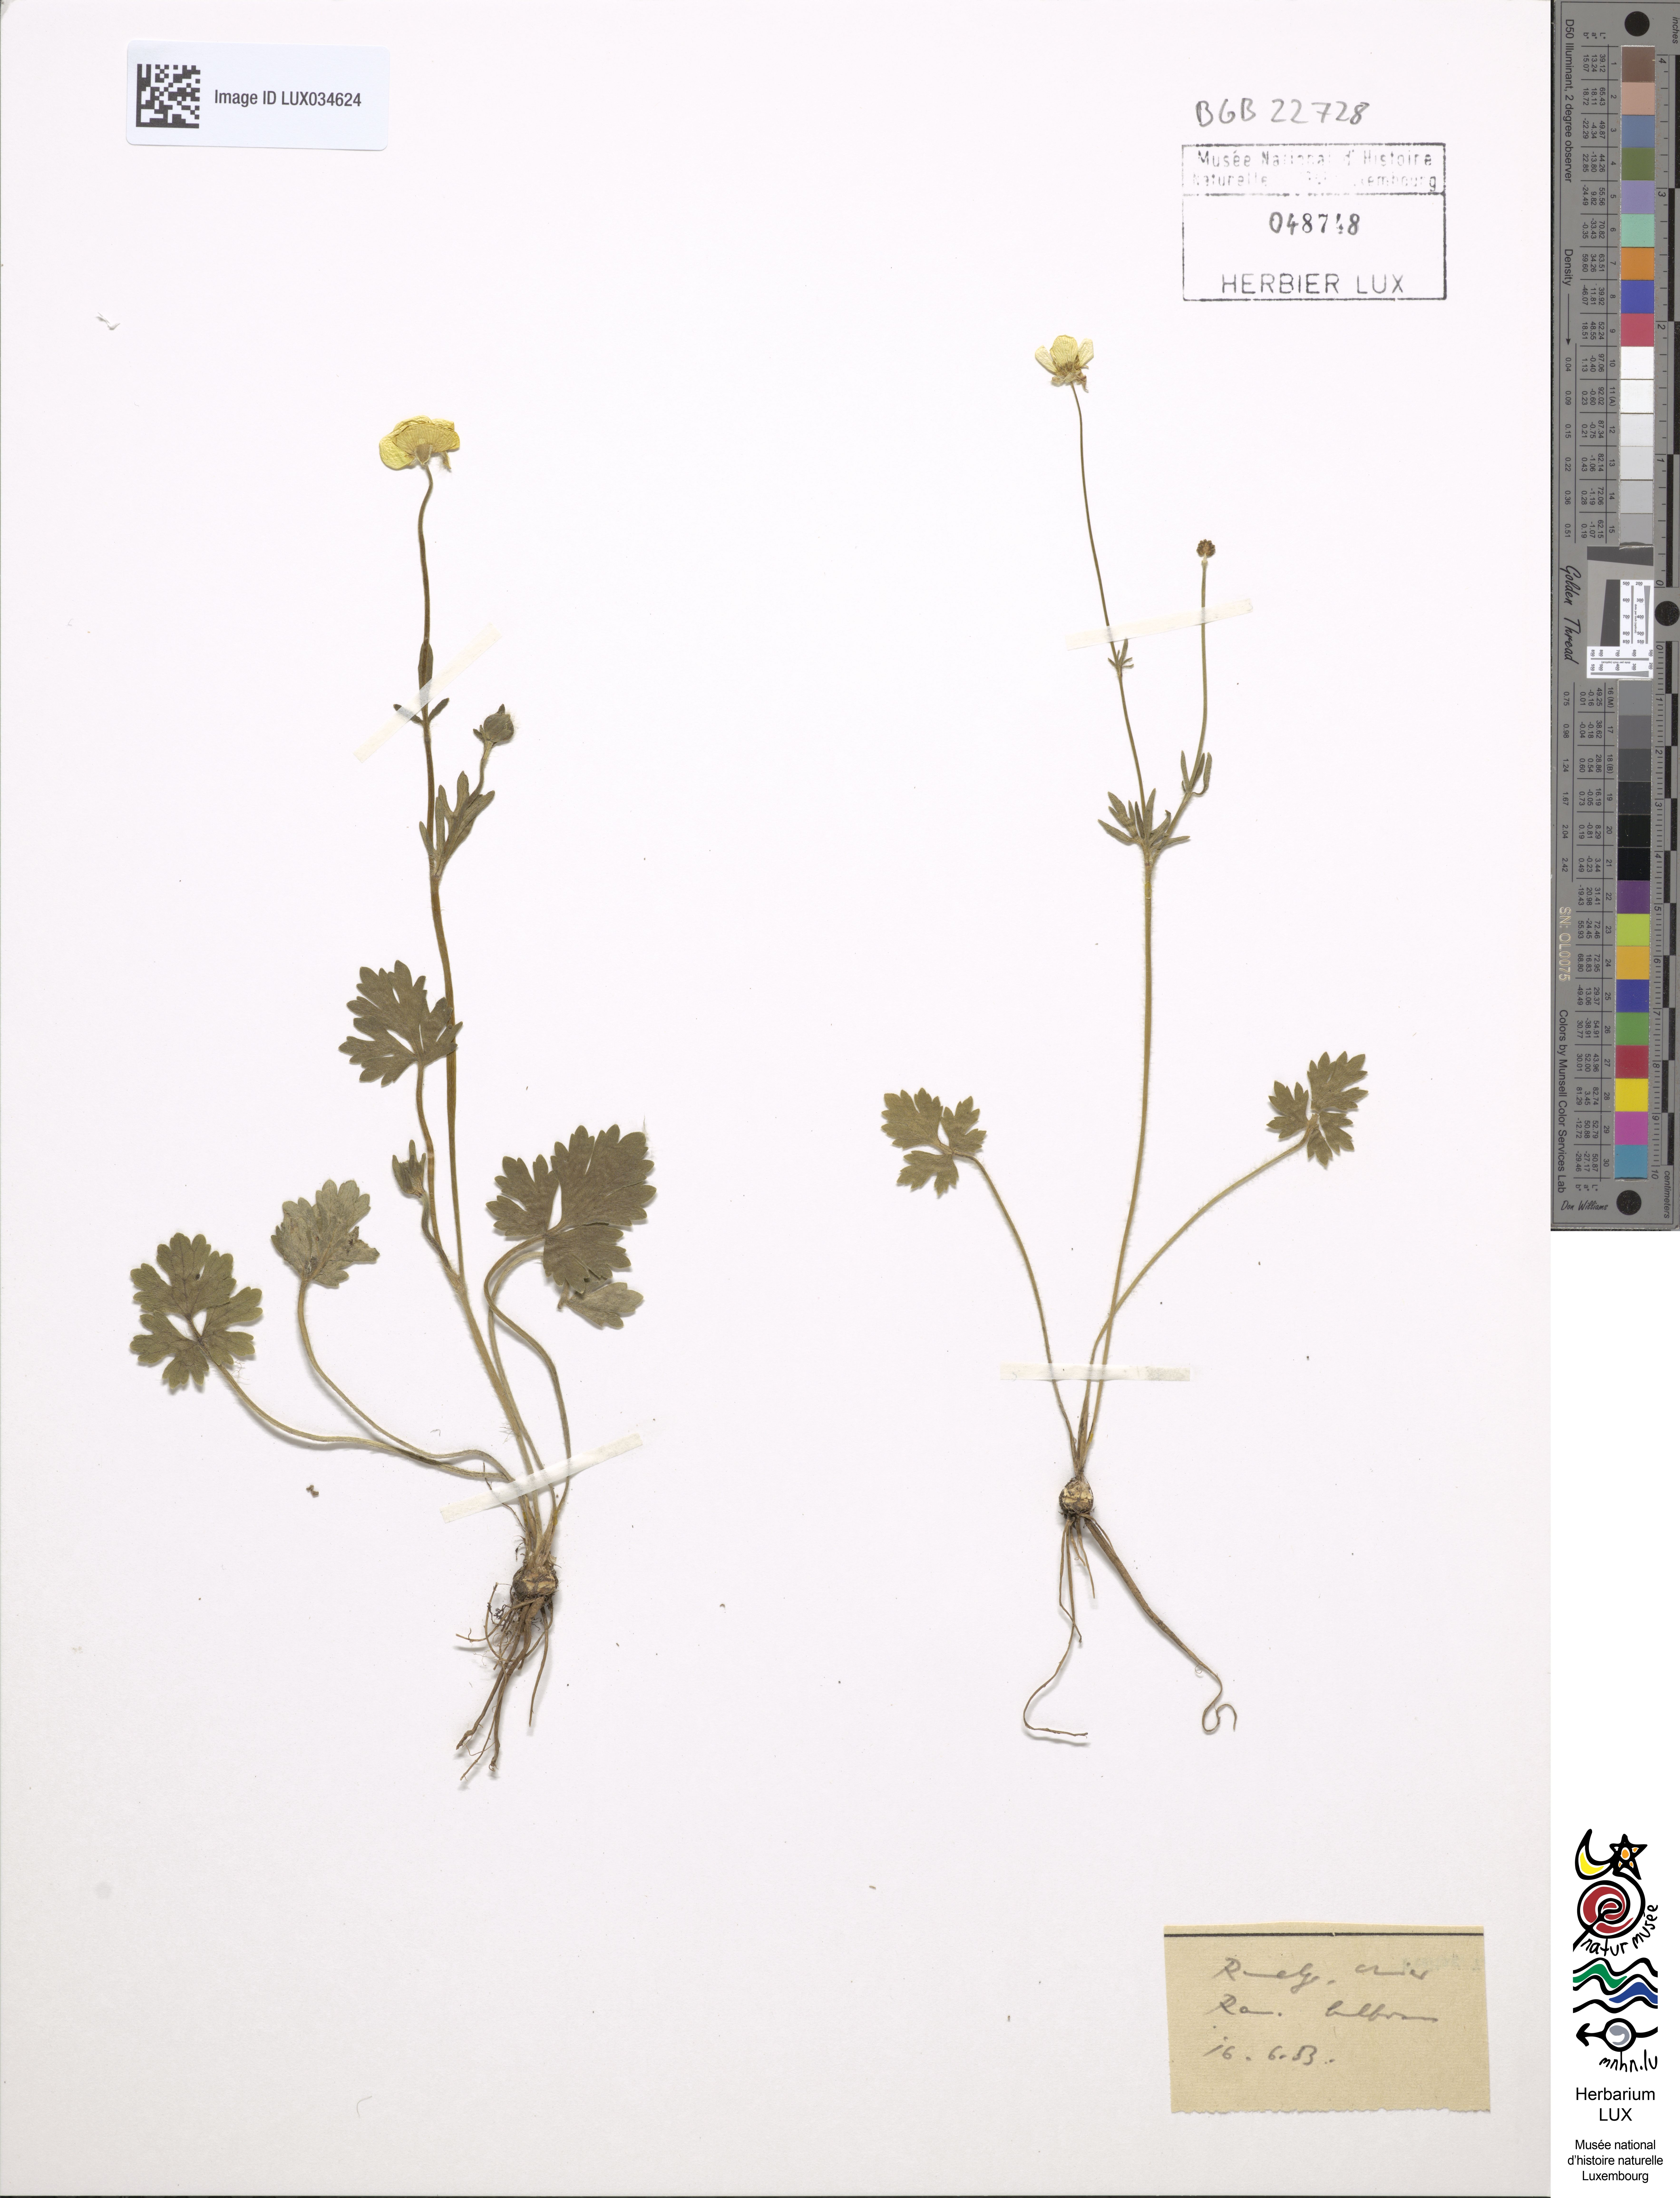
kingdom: Plantae
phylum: Tracheophyta
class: Magnoliopsida
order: Ranunculales
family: Ranunculaceae
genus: Ranunculus
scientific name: Ranunculus bulbosus
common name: Bulbous buttercup
